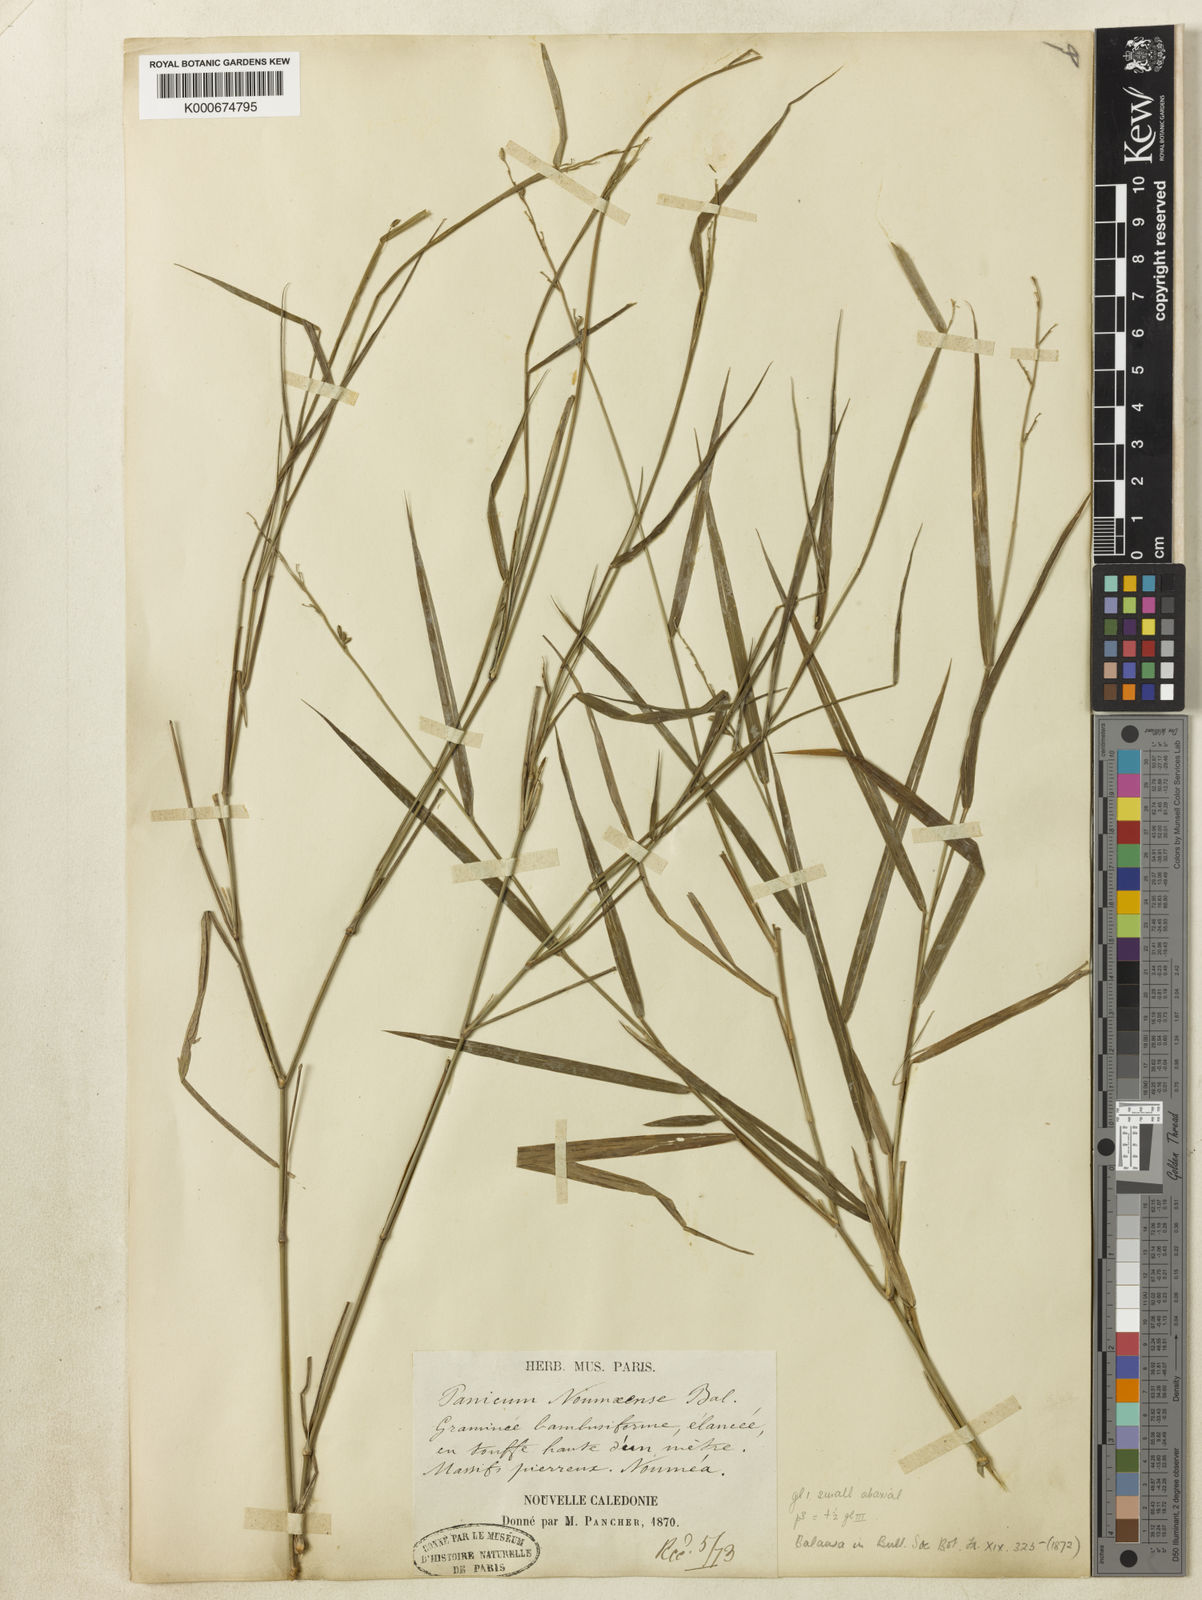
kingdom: Plantae
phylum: Tracheophyta
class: Liliopsida
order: Poales
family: Poaceae
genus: Ancistrachne
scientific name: Ancistrachne numaeensis
